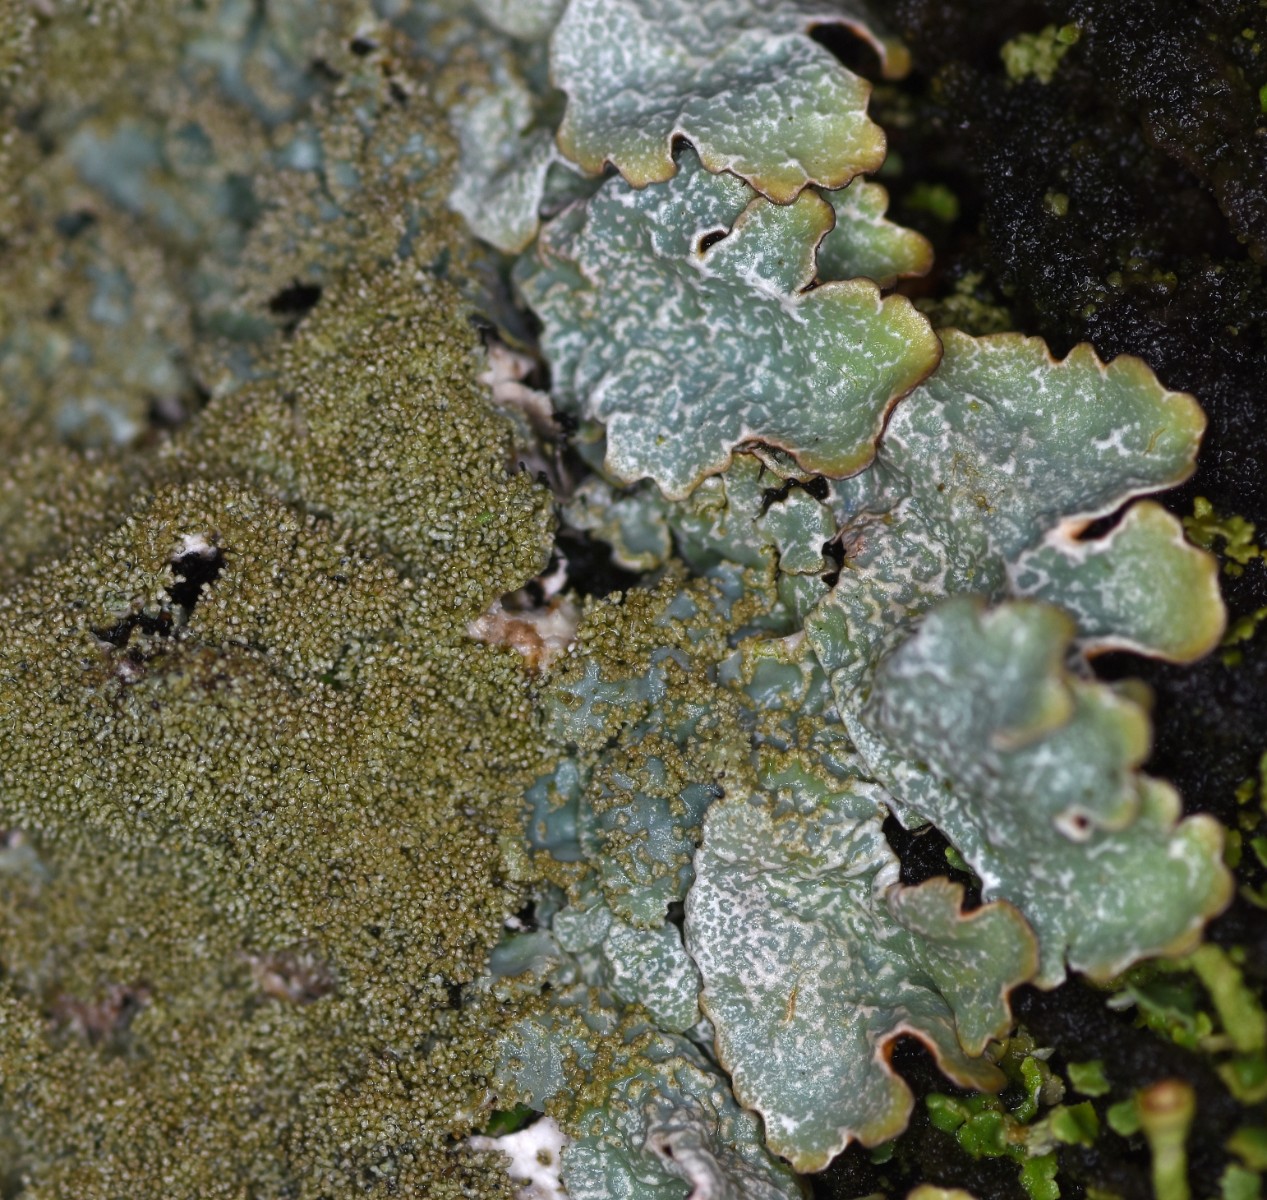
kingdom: Fungi
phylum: Ascomycota
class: Lecanoromycetes
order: Lecanorales
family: Parmeliaceae
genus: Parmelia
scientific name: Parmelia saxatilis
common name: farve-skållav
